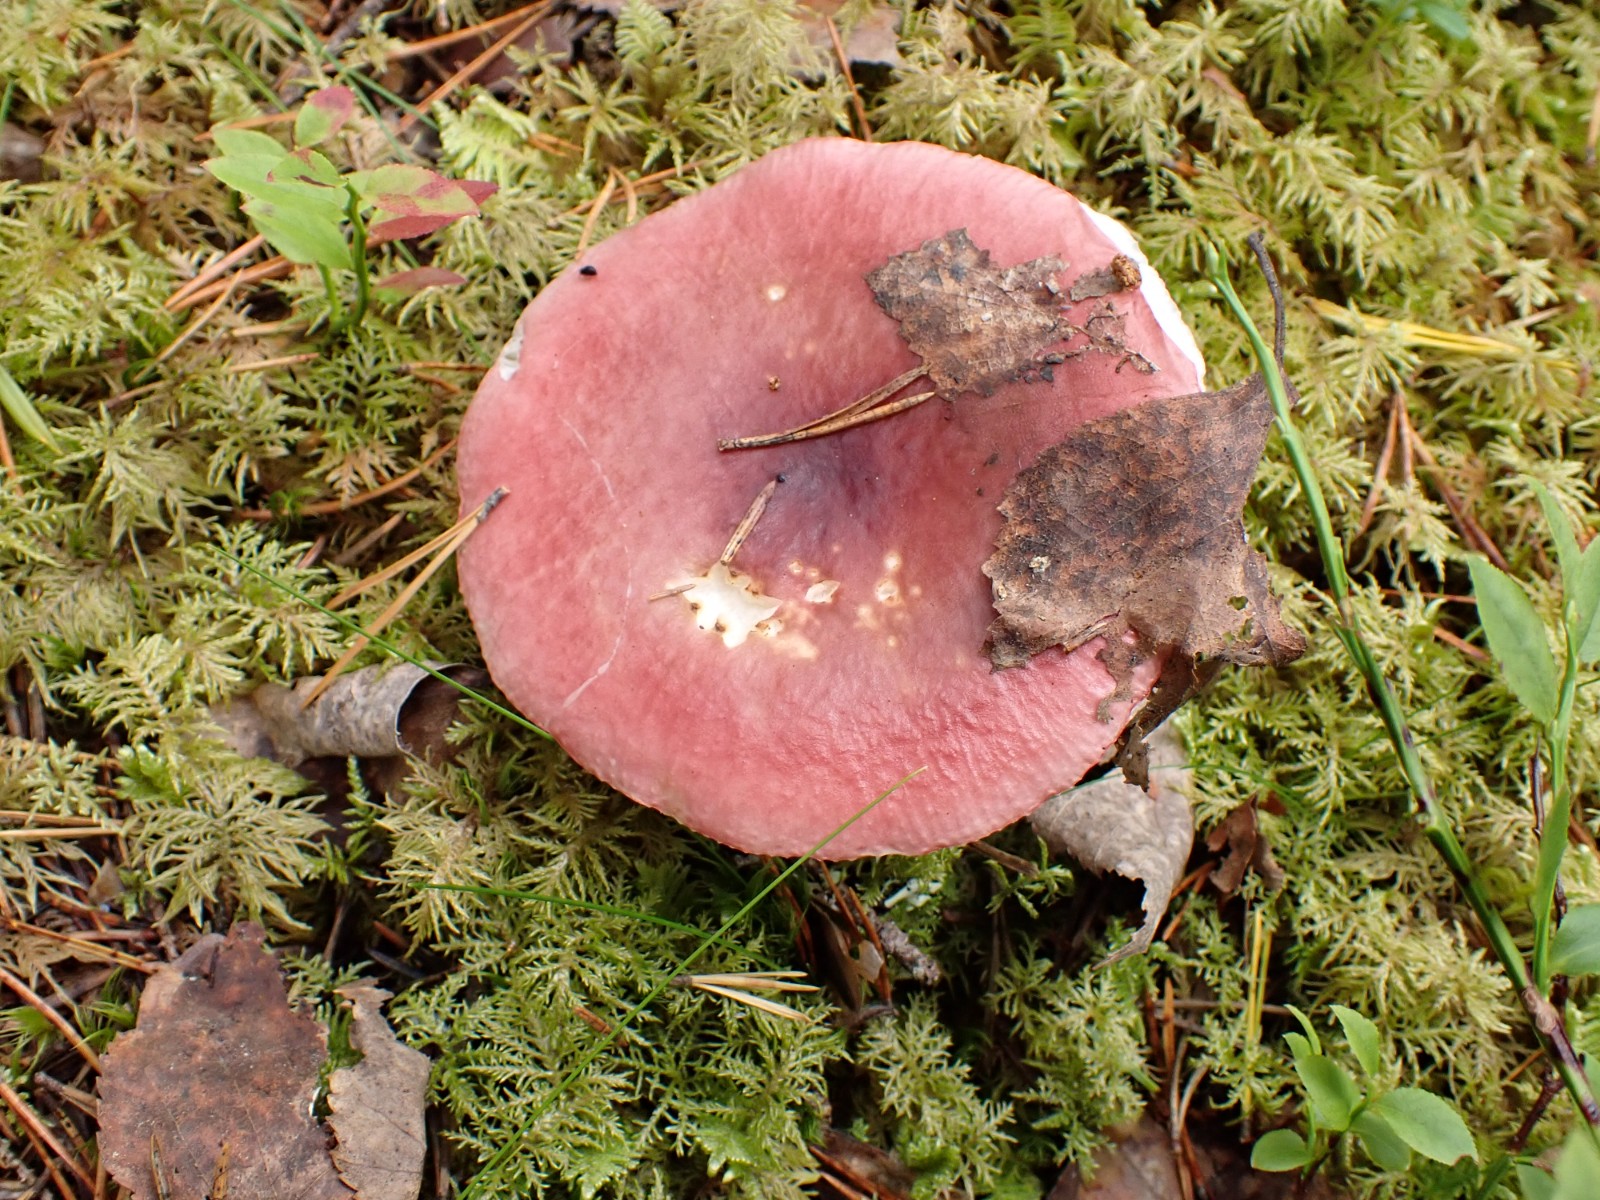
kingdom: Fungi
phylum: Basidiomycota
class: Agaricomycetes
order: Russulales
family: Russulaceae
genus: Russula
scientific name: Russula aquosa
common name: vand-skørhat
